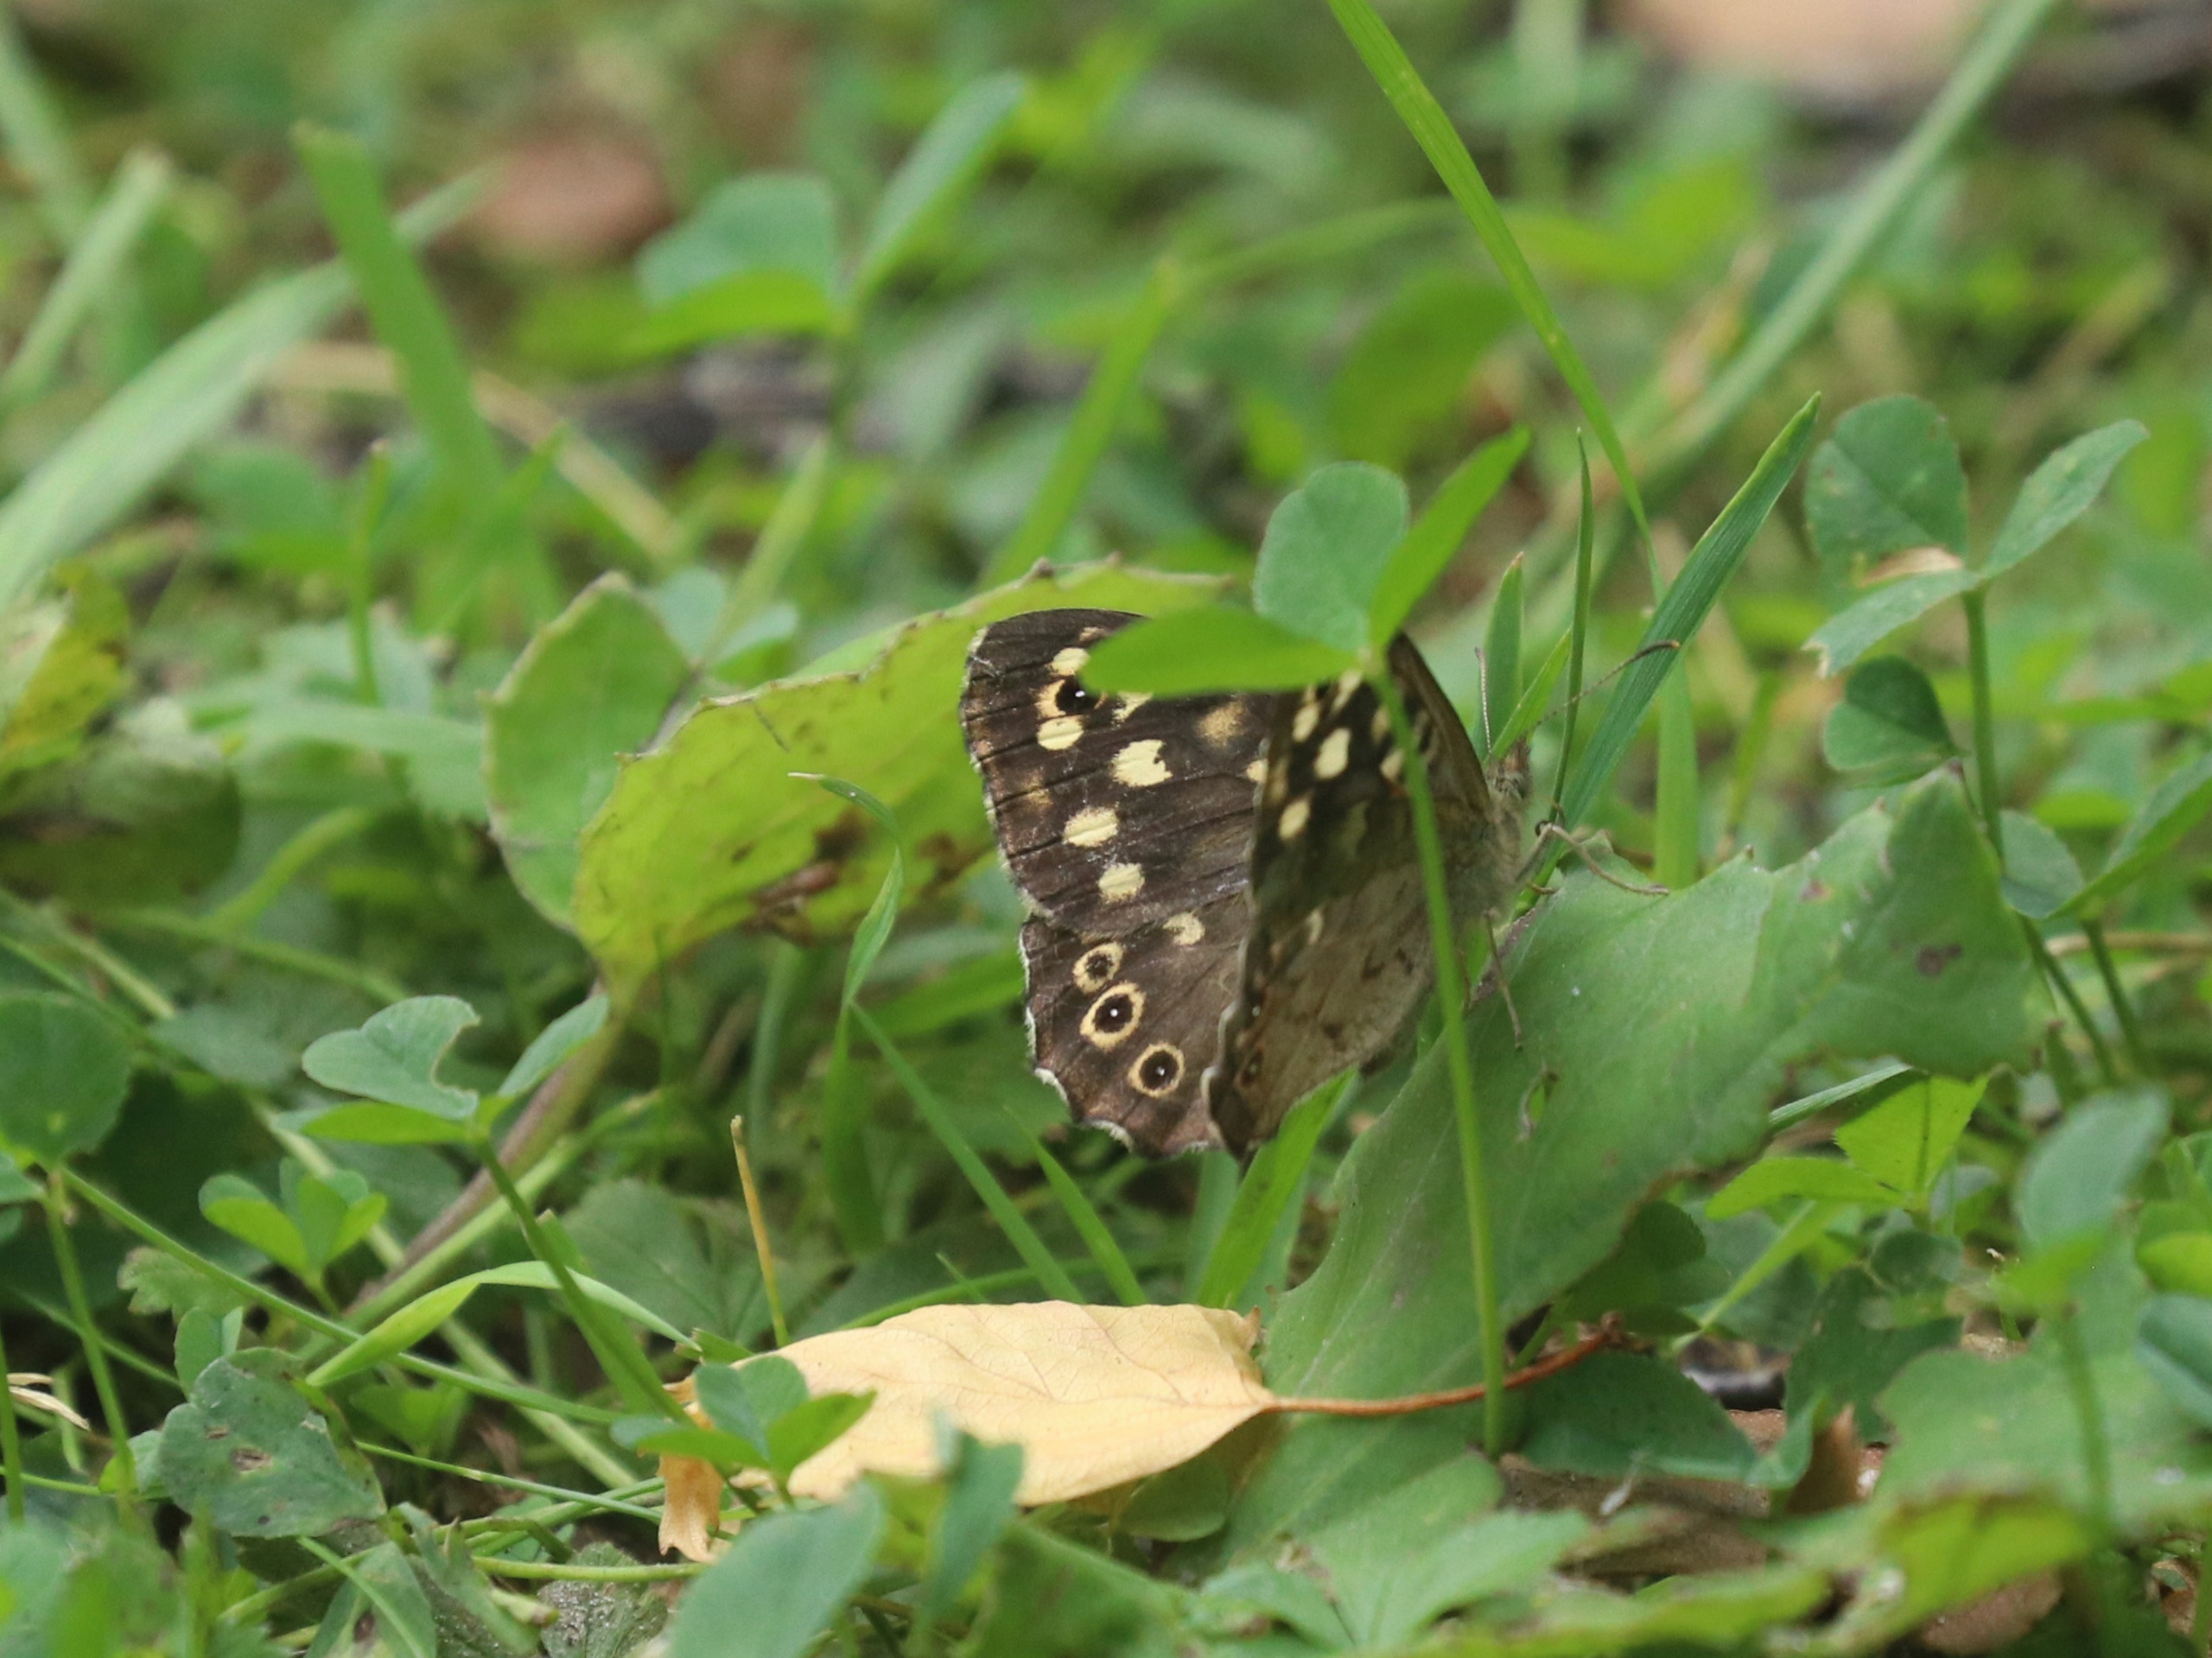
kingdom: Animalia
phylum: Arthropoda
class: Insecta
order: Lepidoptera
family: Nymphalidae
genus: Pararge
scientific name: Pararge aegeria
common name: Skovrandøje
